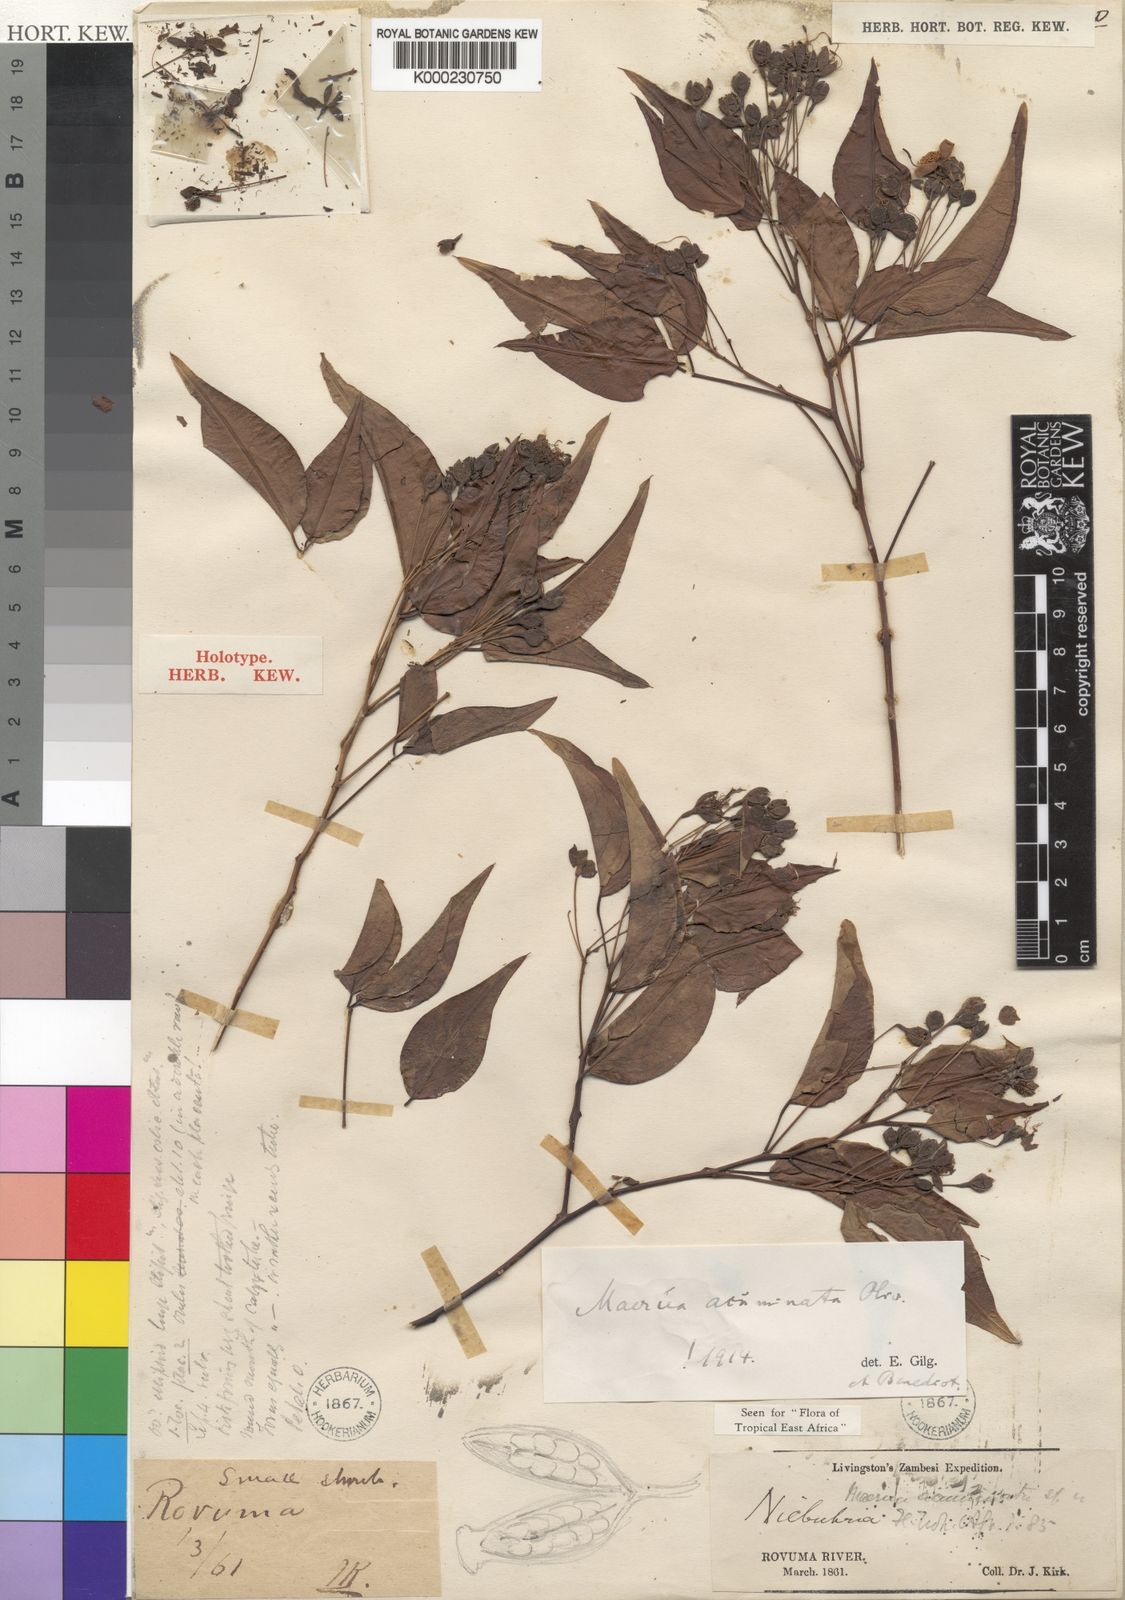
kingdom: Plantae
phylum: Tracheophyta
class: Magnoliopsida
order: Brassicales
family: Capparaceae
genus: Maerua
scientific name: Maerua acuminata
